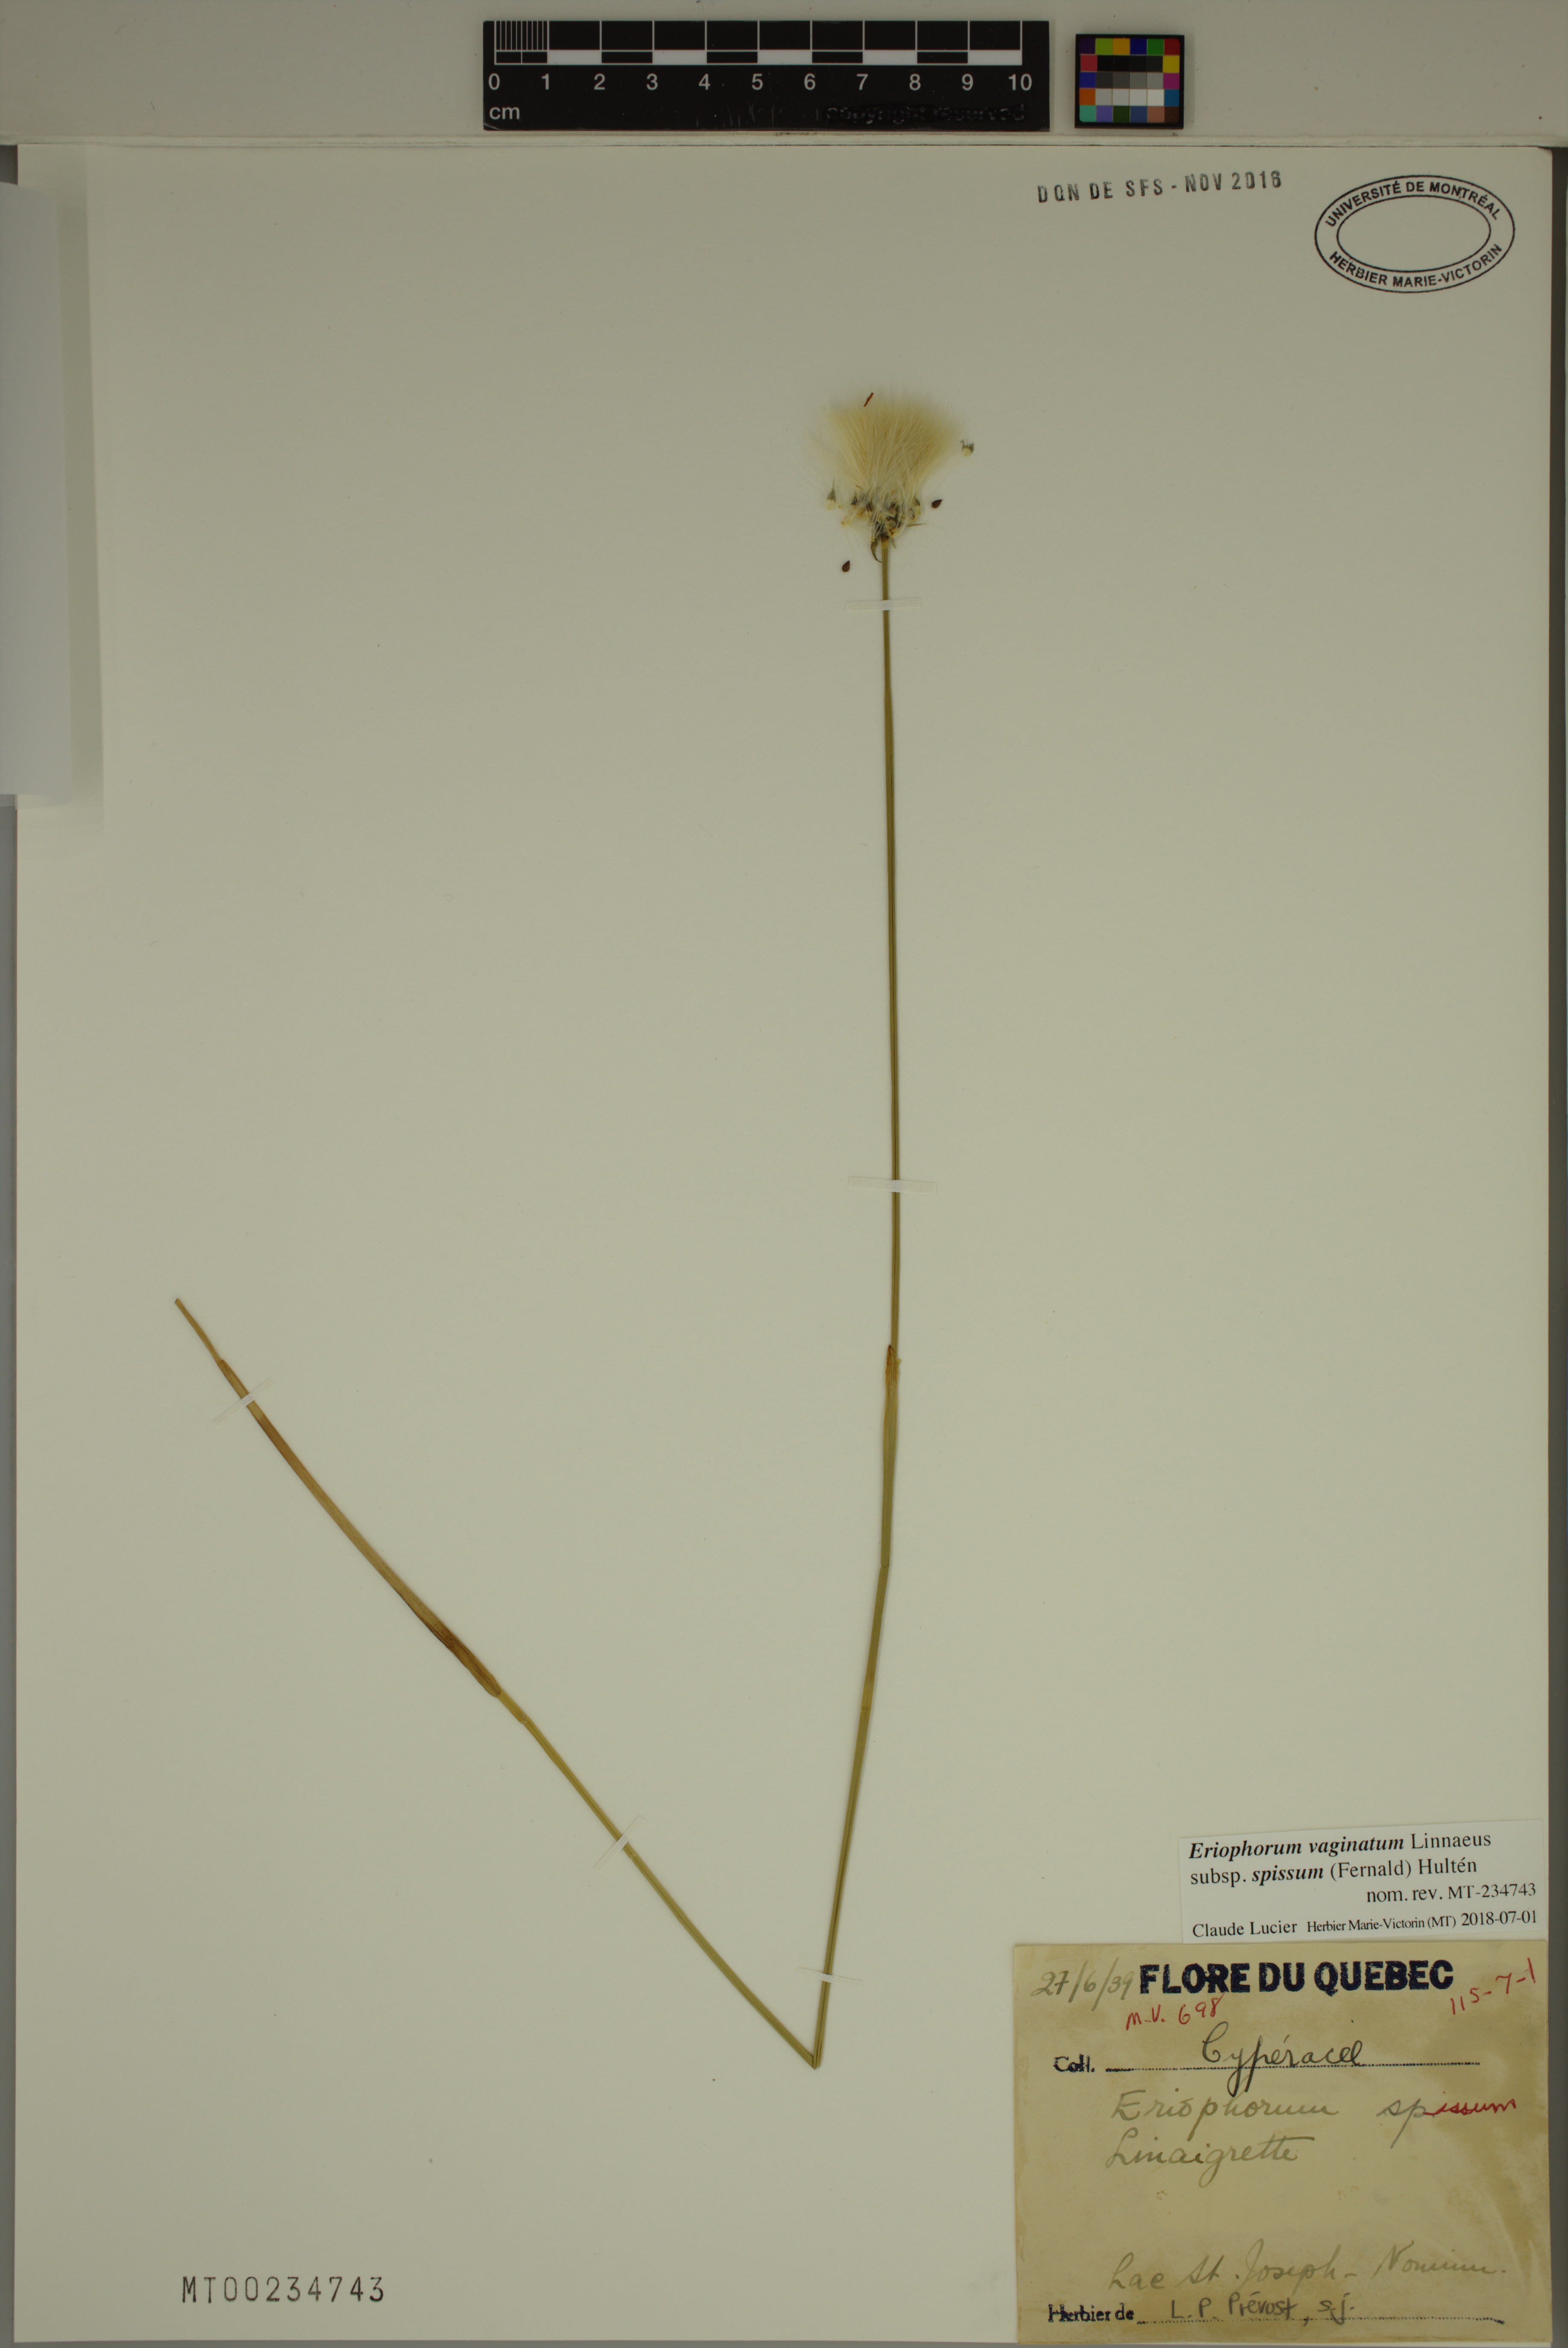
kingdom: Plantae
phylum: Tracheophyta
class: Liliopsida
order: Poales
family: Cyperaceae
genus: Eriophorum
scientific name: Eriophorum vaginatum
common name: Hare's-tail cottongrass
